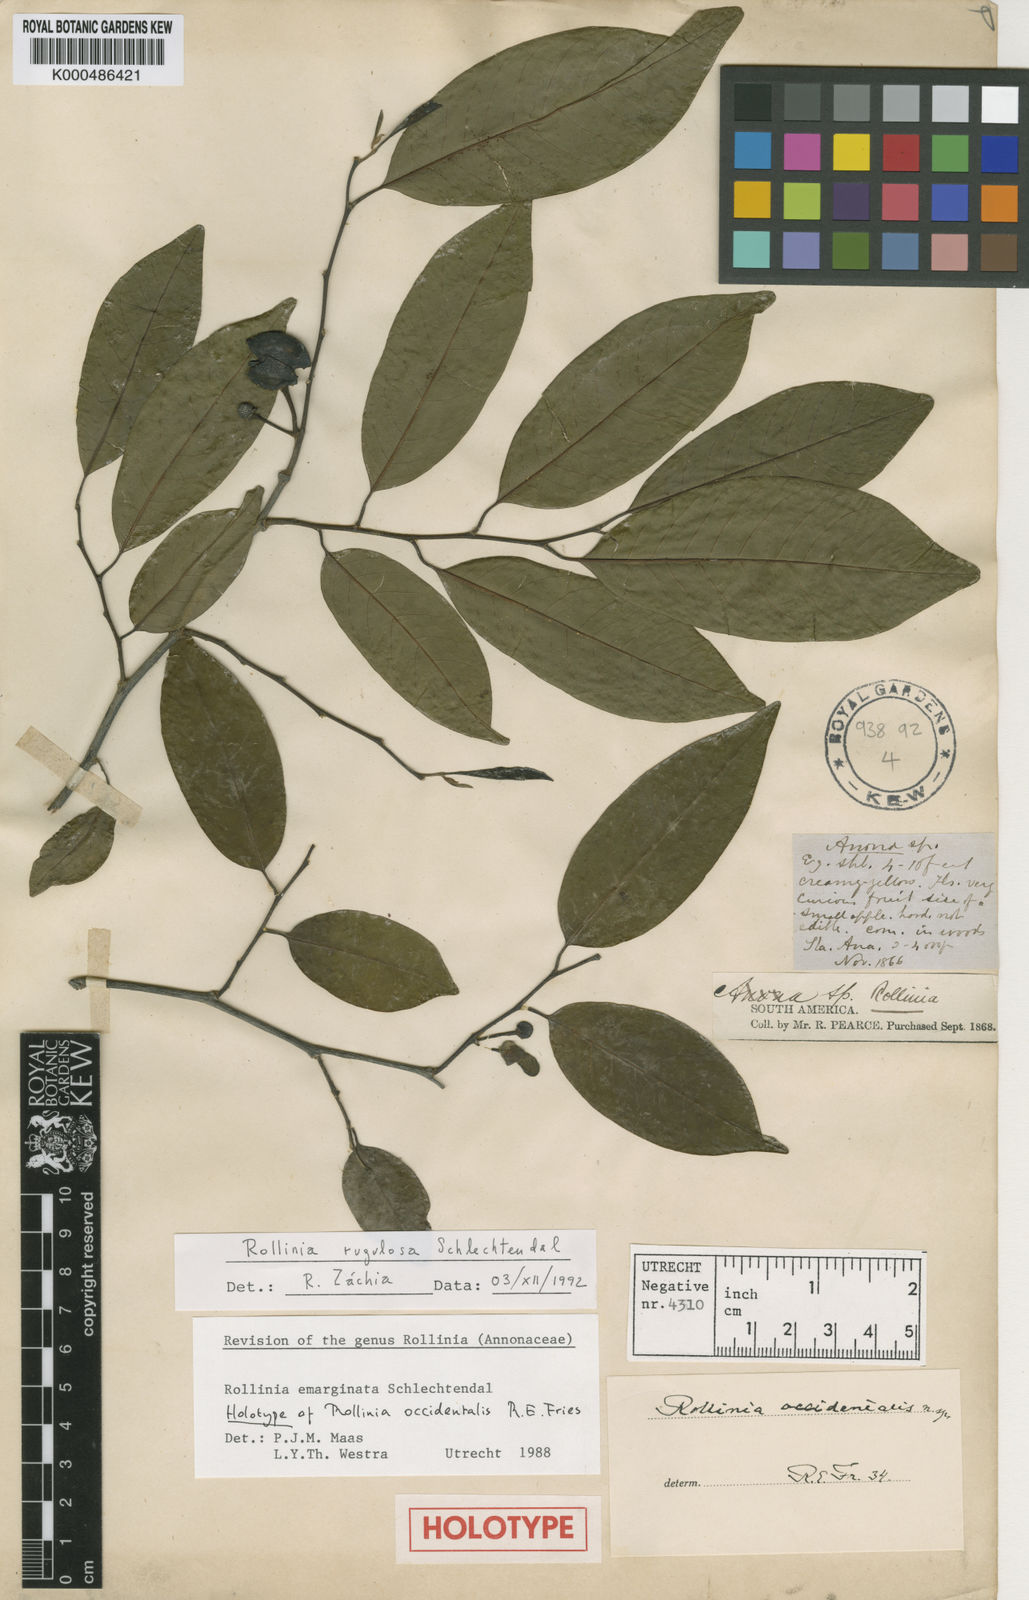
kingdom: Plantae
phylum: Tracheophyta
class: Magnoliopsida
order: Magnoliales
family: Annonaceae
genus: Annona
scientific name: Annona emarginata
